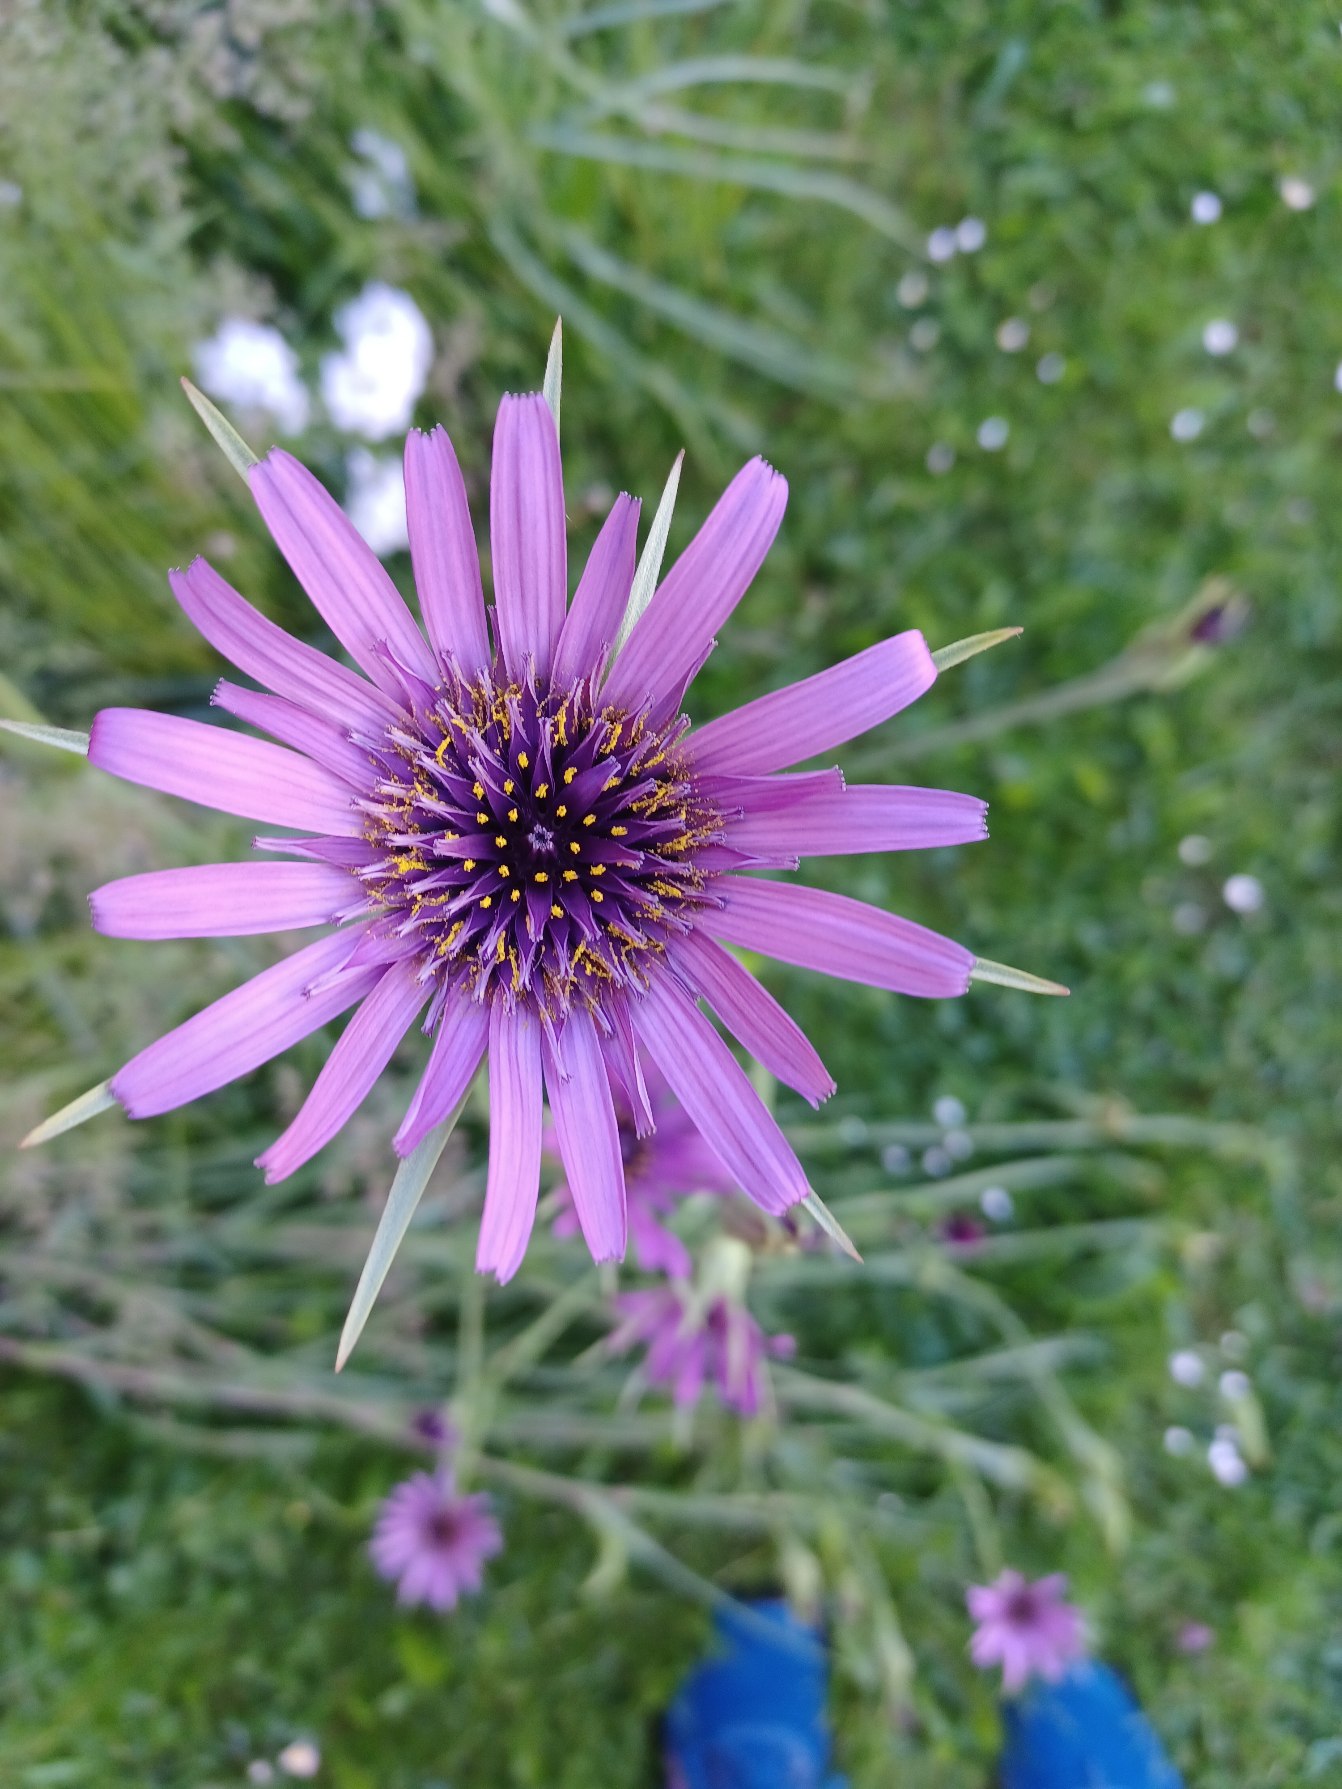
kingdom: Plantae
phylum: Tracheophyta
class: Magnoliopsida
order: Asterales
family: Asteraceae
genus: Tragopogon
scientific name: Tragopogon porrifolius
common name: Havrerod
